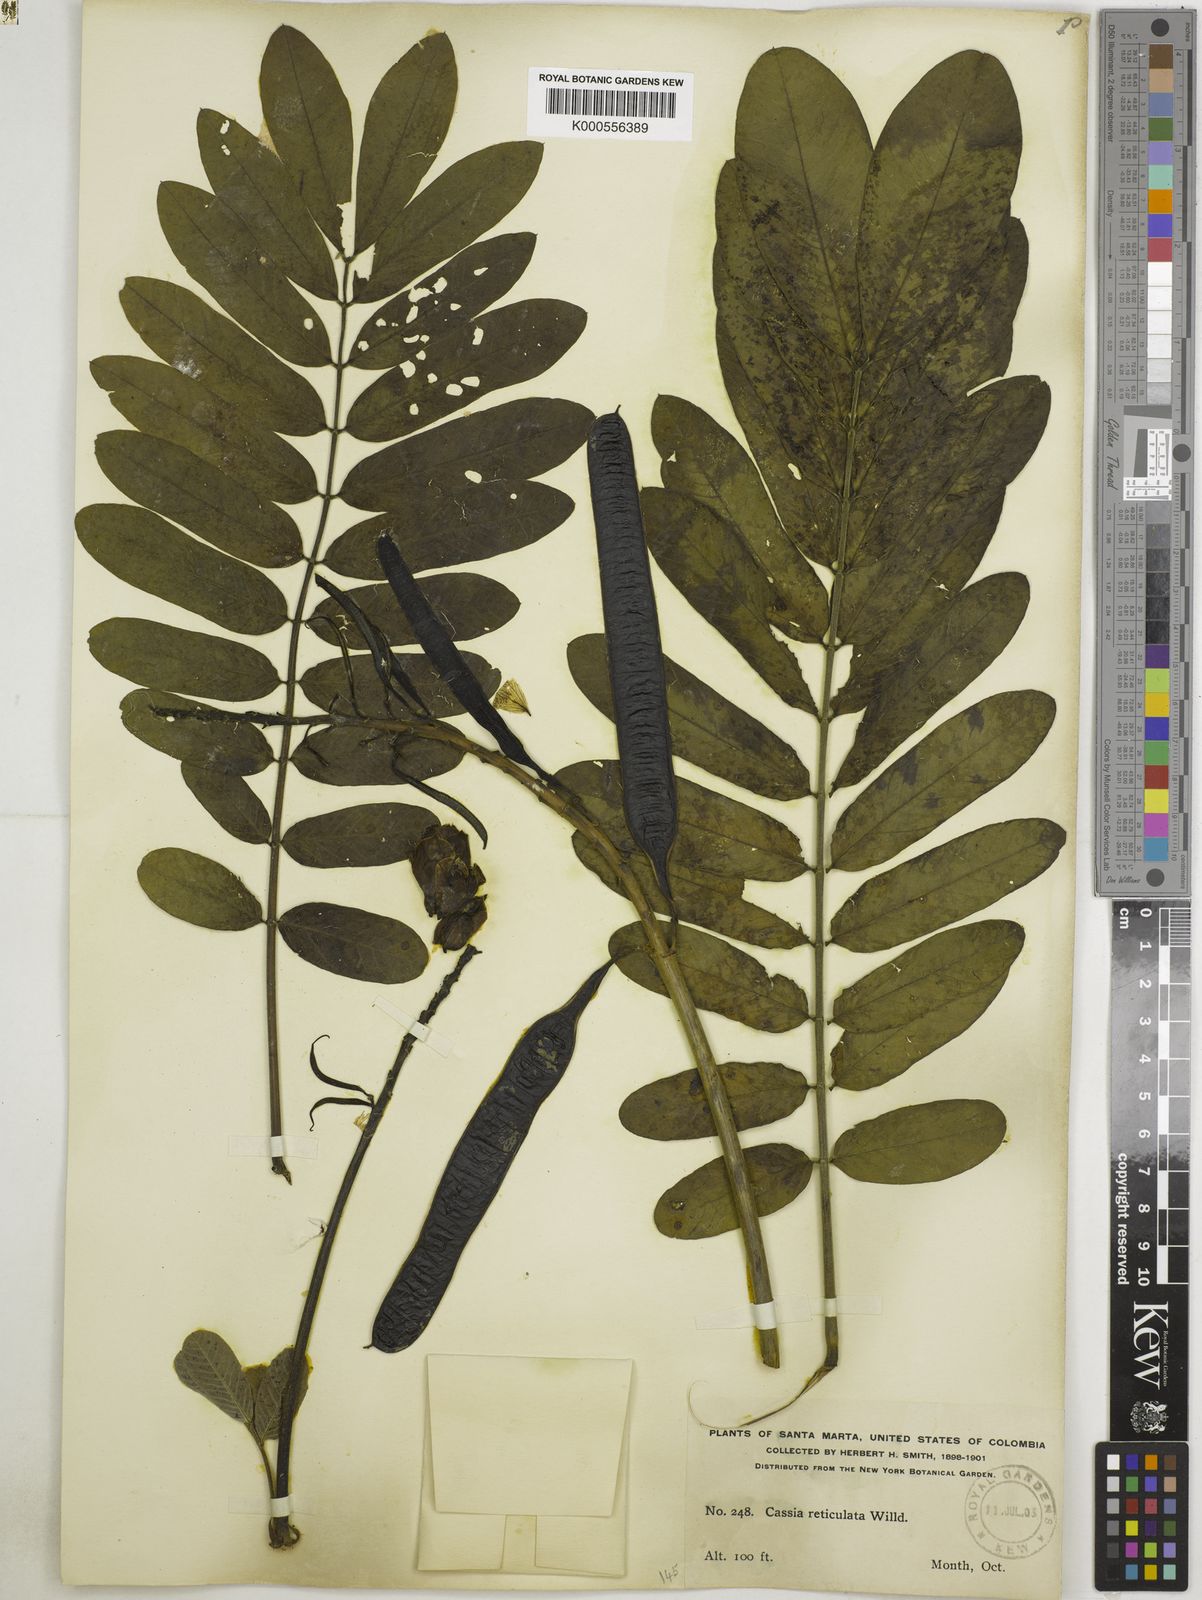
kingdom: Plantae
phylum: Tracheophyta
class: Magnoliopsida
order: Fabales
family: Fabaceae
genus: Senna
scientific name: Senna reticulata
